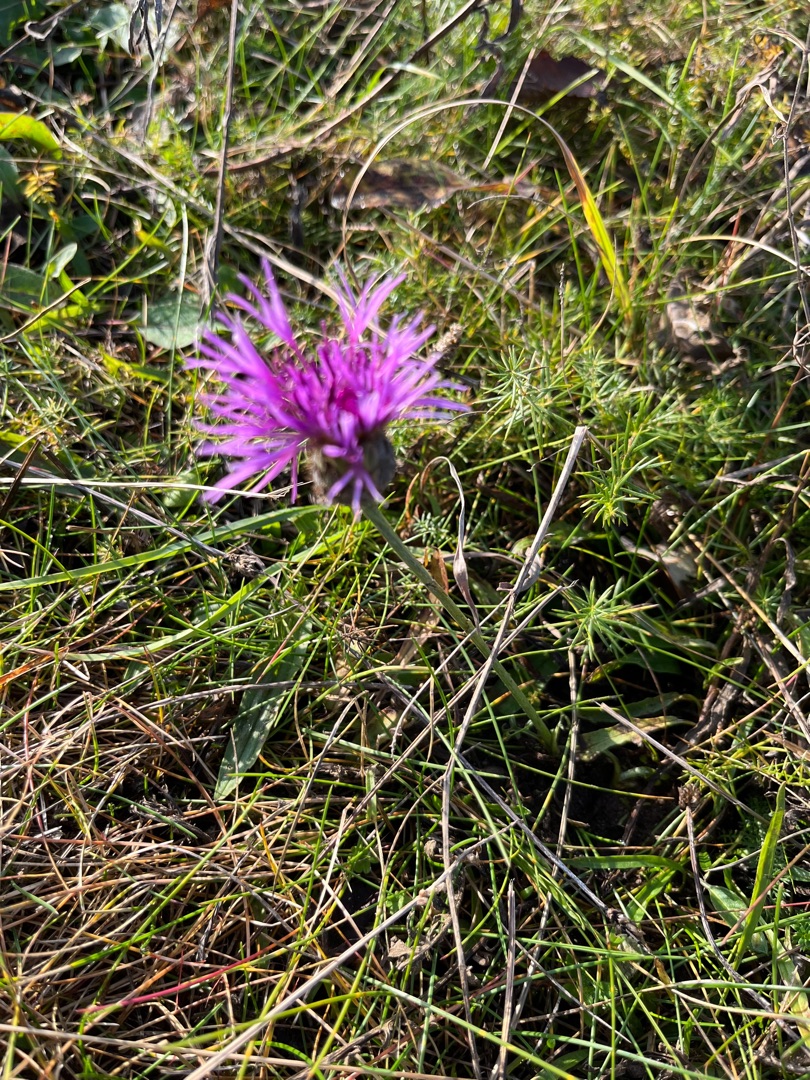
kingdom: Plantae
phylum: Tracheophyta
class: Magnoliopsida
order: Asterales
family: Asteraceae
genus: Centaurea
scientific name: Centaurea
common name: Knopurtslægten
